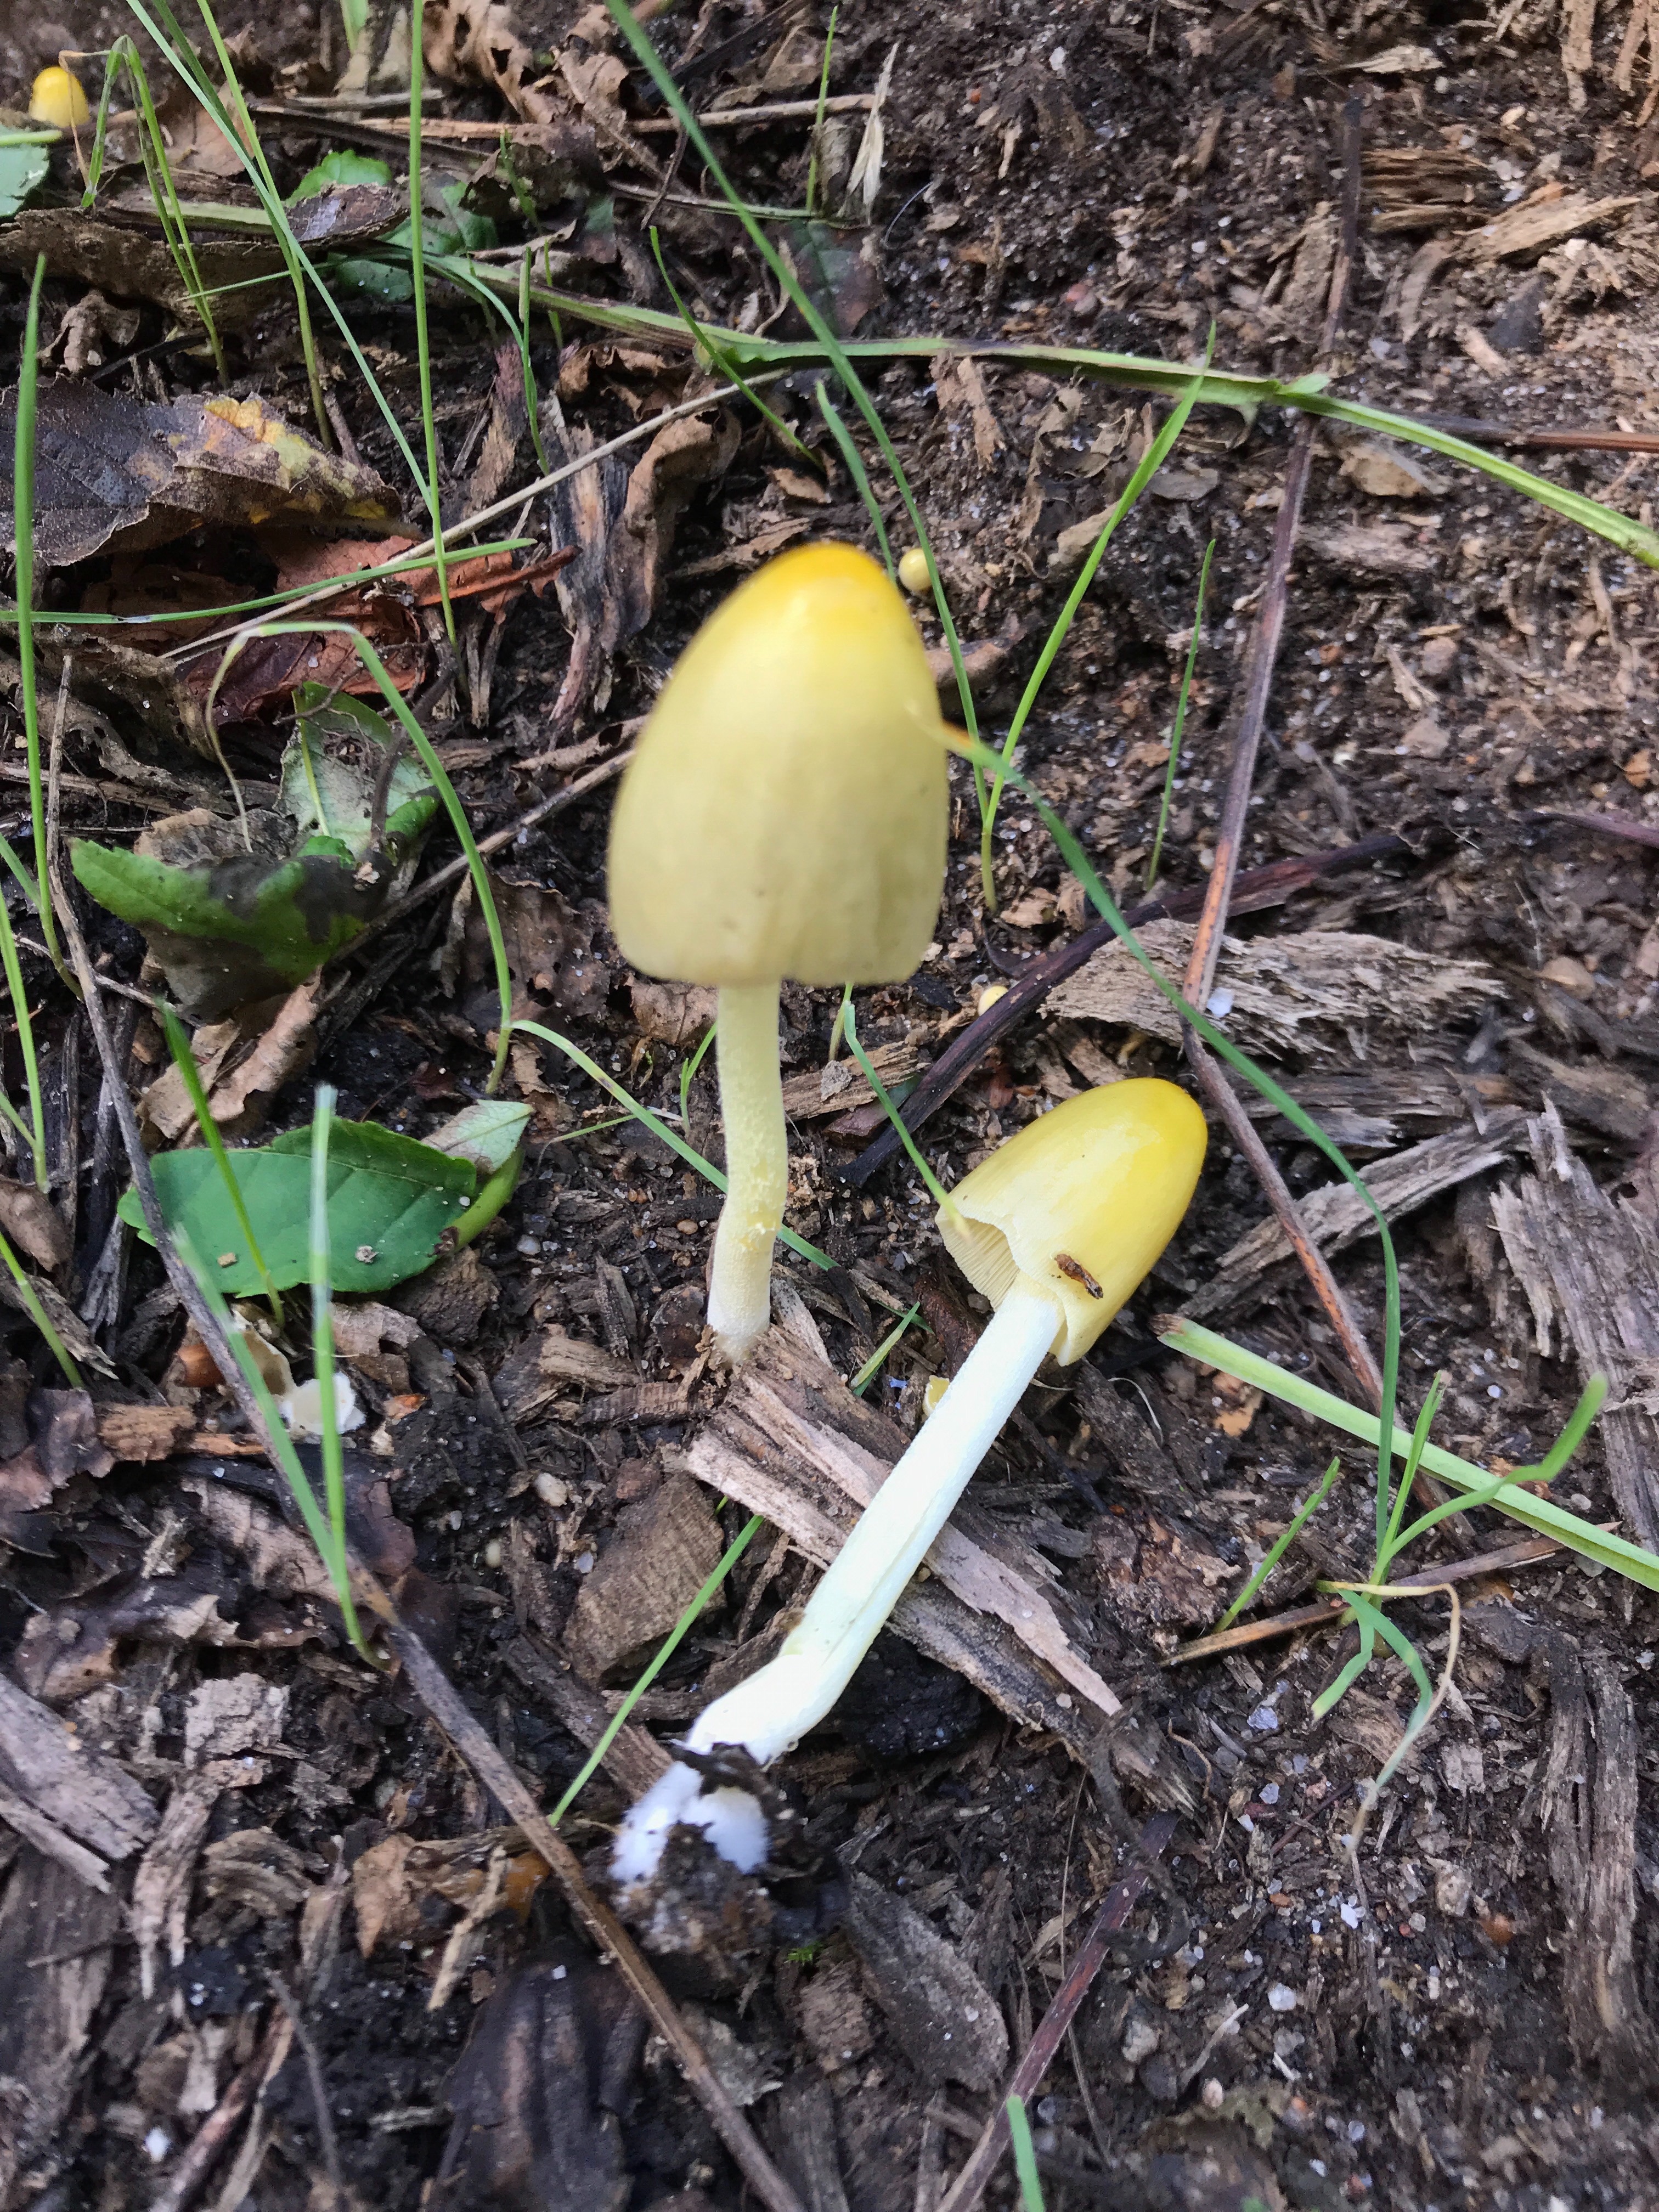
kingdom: Fungi
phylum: Basidiomycota
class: Agaricomycetes
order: Agaricales
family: Bolbitiaceae
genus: Bolbitius
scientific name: Bolbitius titubans
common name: almindelig gulhat
